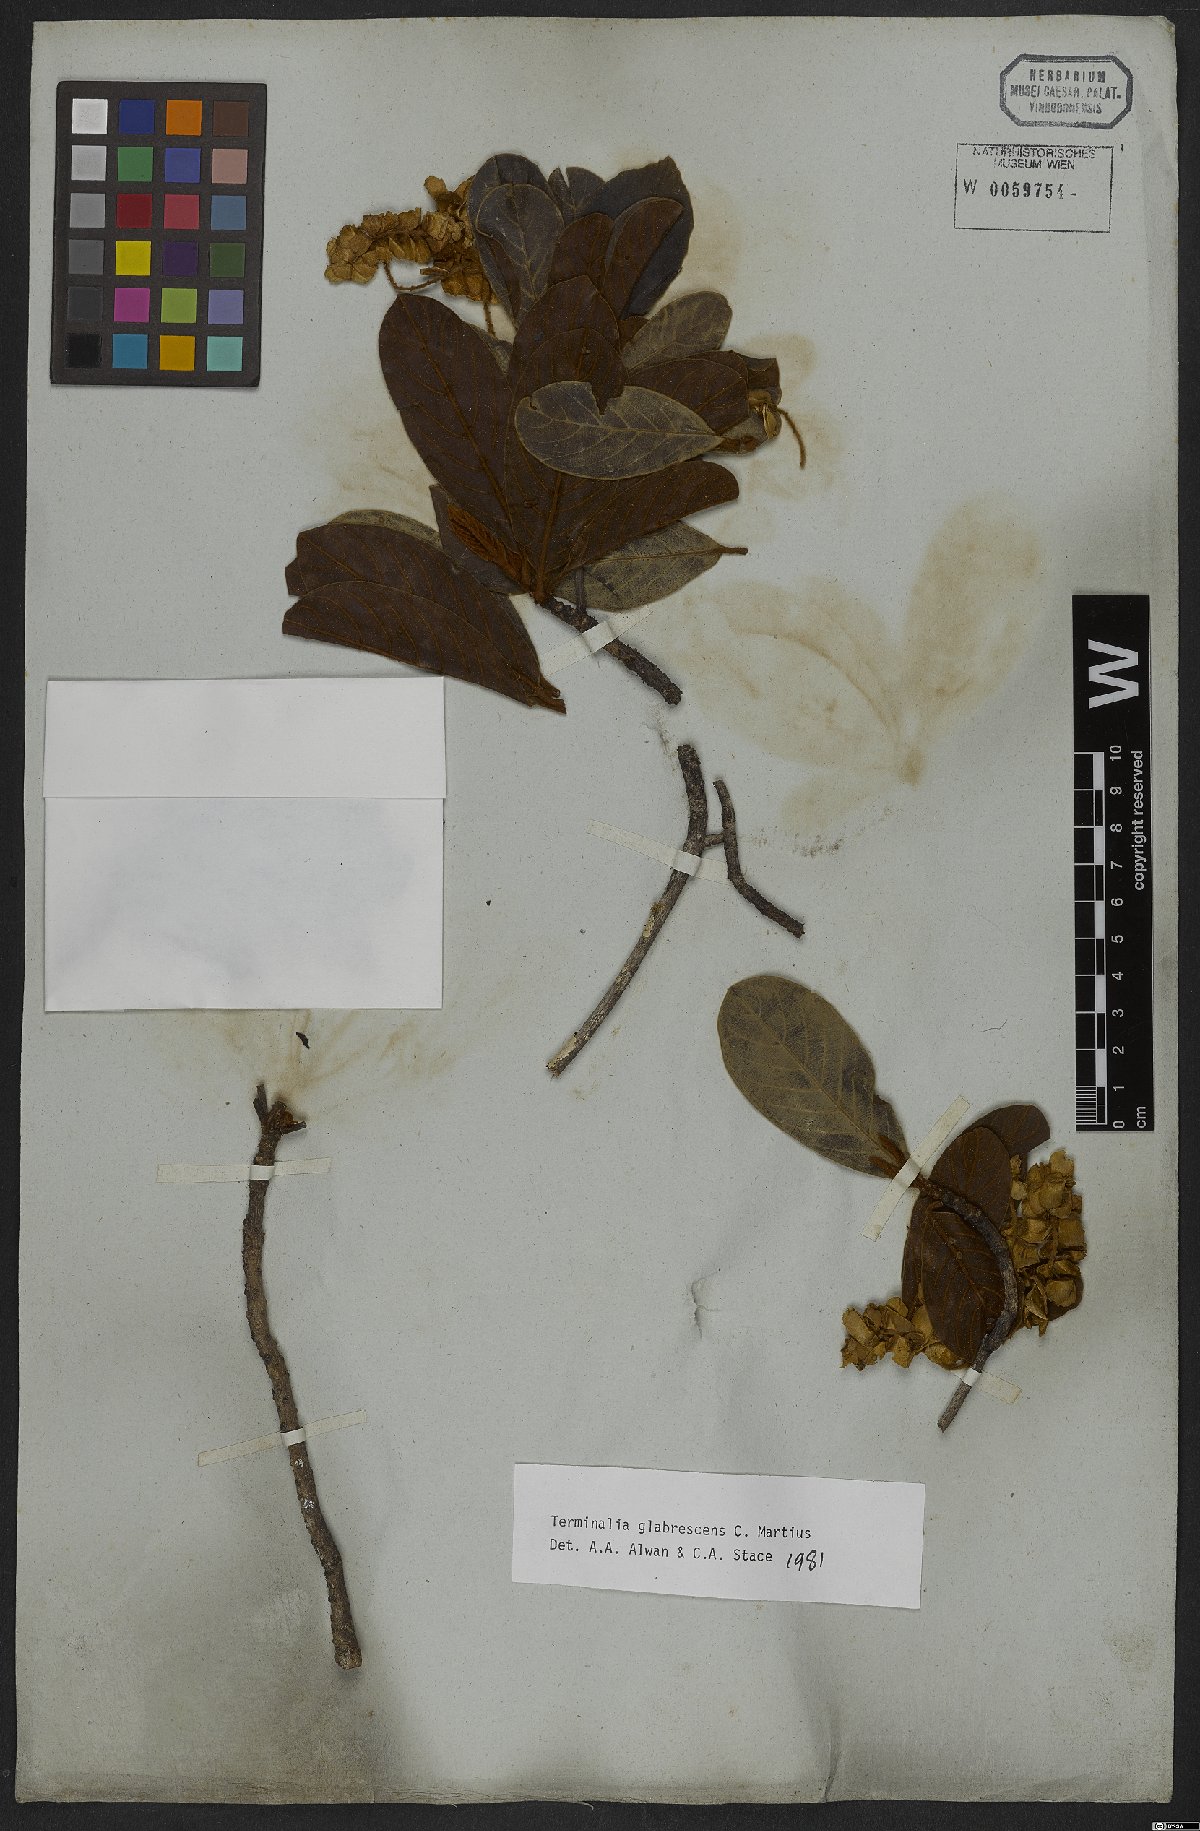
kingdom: Plantae
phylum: Tracheophyta
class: Magnoliopsida
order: Myrtales
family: Combretaceae
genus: Terminalia
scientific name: Terminalia glabrescens
